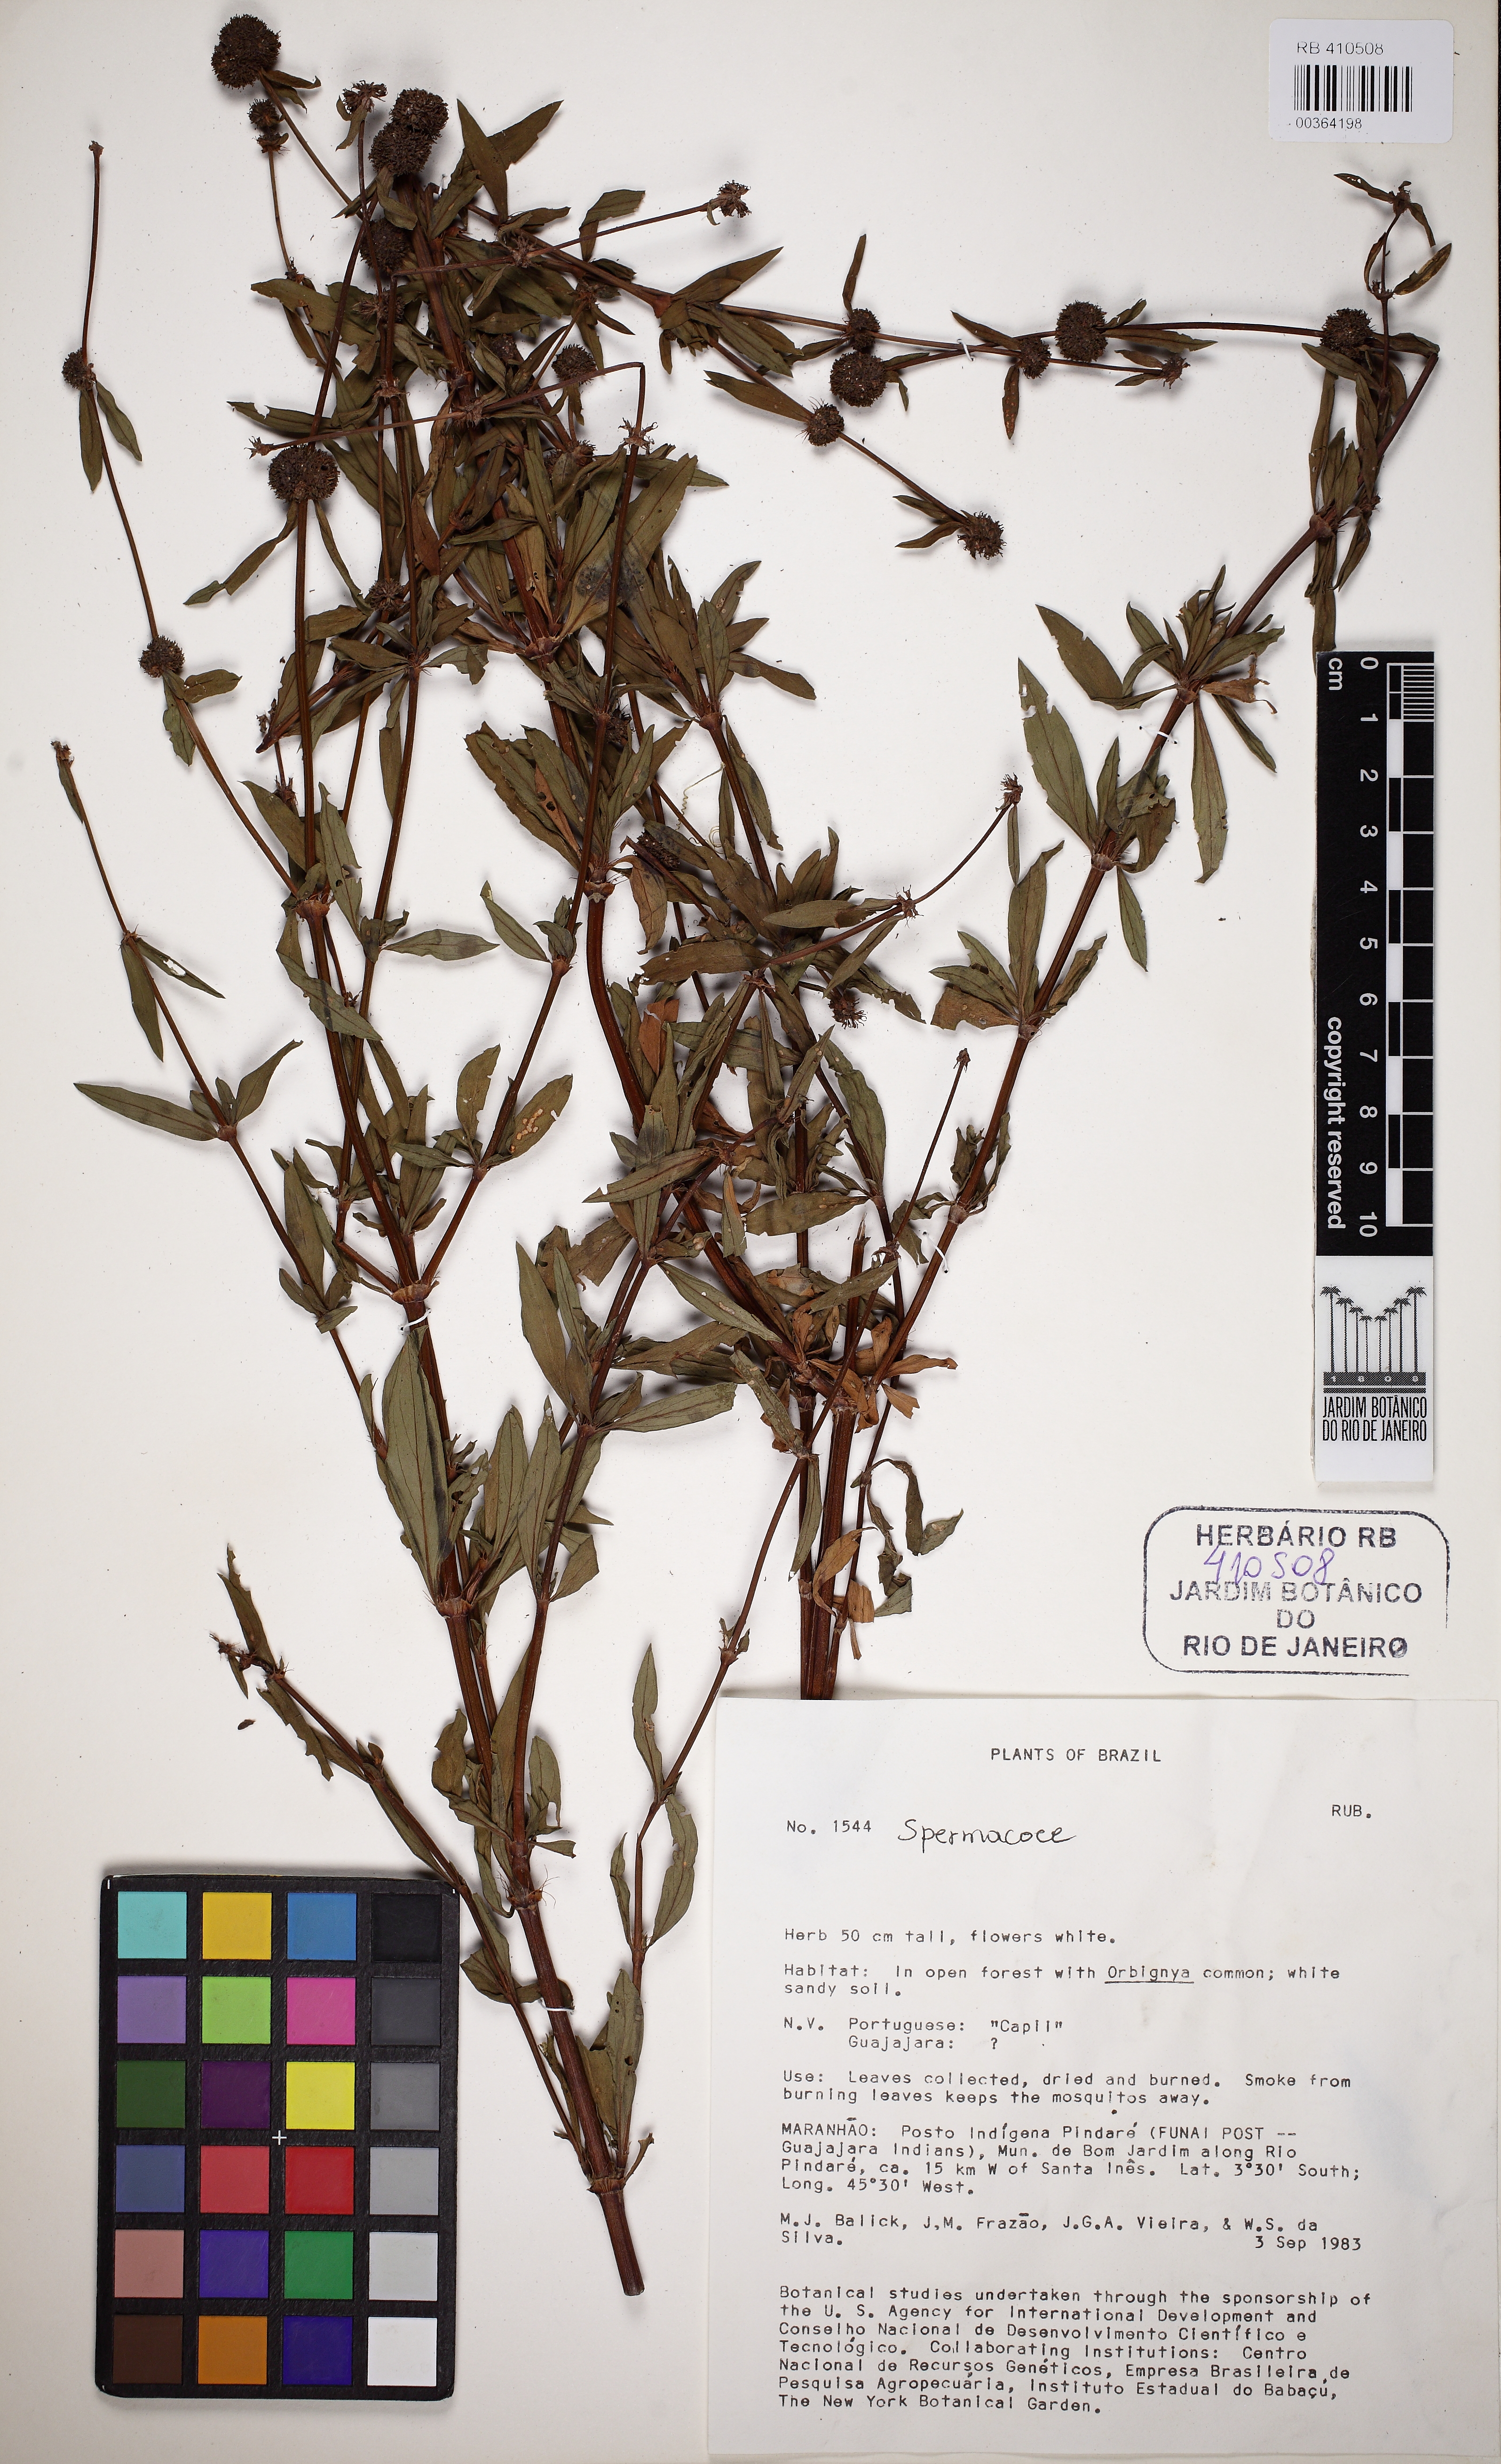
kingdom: Plantae
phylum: Tracheophyta
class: Magnoliopsida
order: Gentianales
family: Rubiaceae
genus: Spermacoce
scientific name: Spermacoce verticillata
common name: Shrubby false buttonweed
